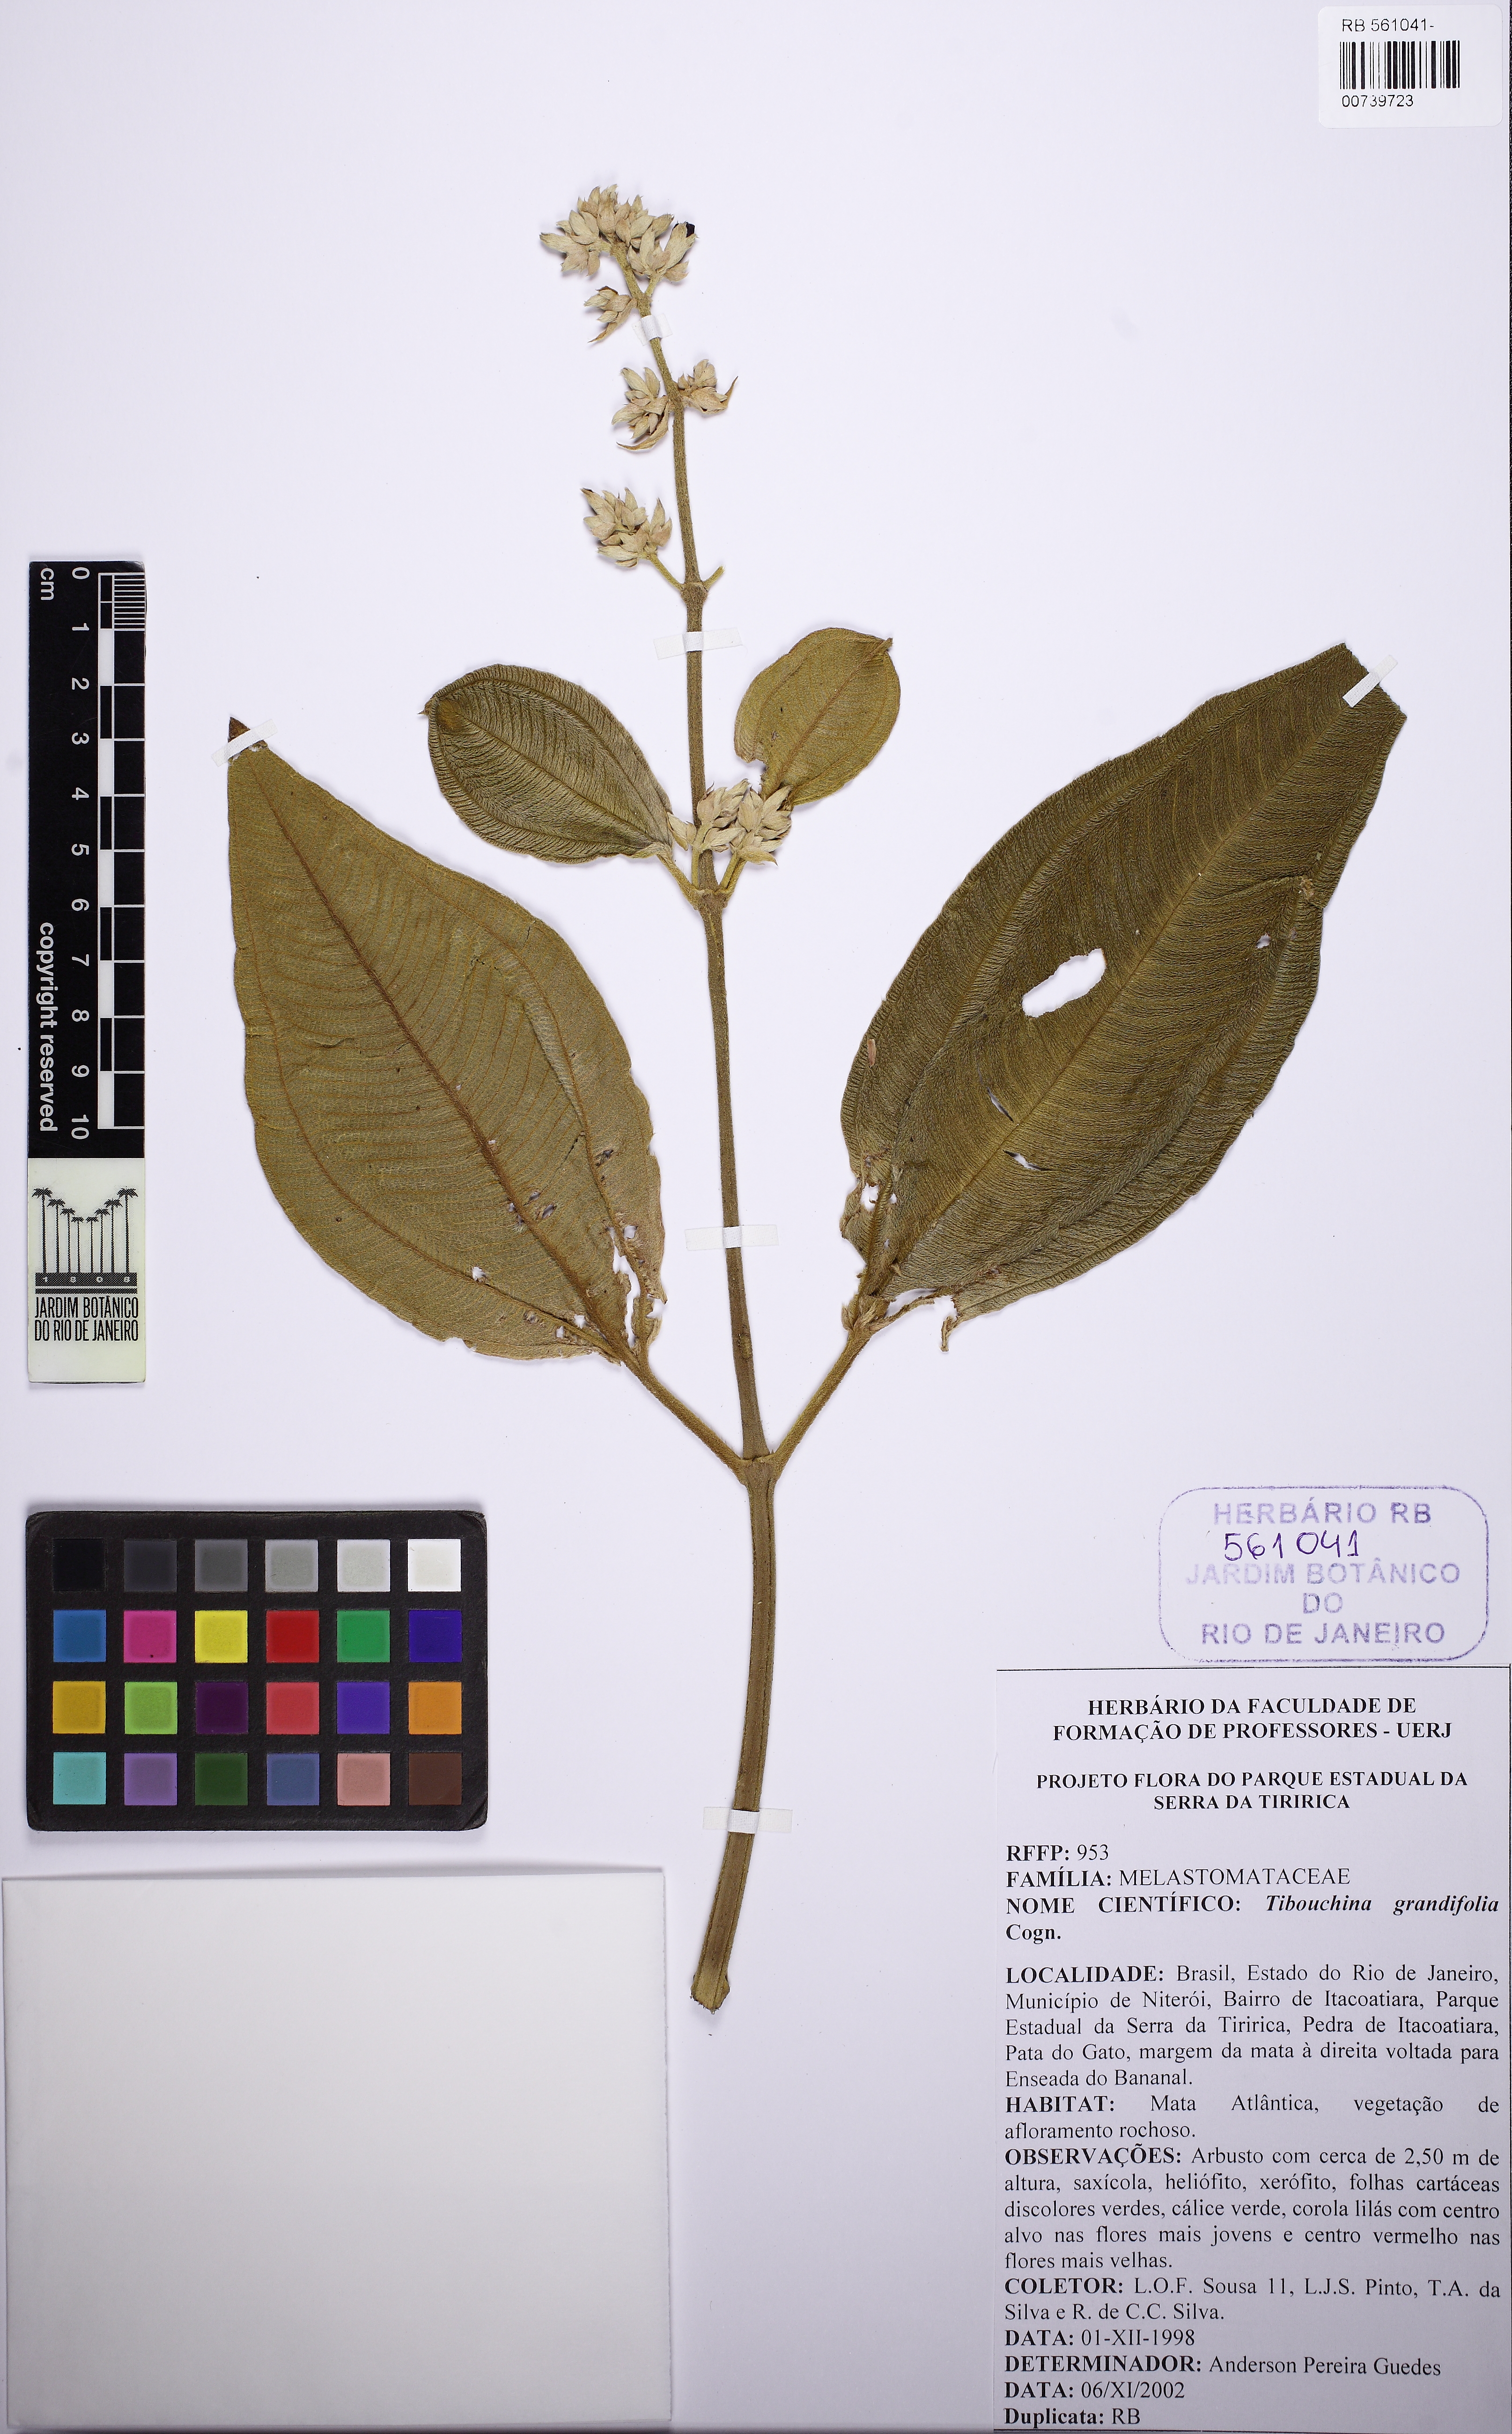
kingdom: Plantae
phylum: Tracheophyta
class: Magnoliopsida
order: Myrtales
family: Melastomataceae
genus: Pleroma
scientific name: Pleroma heteromallum
